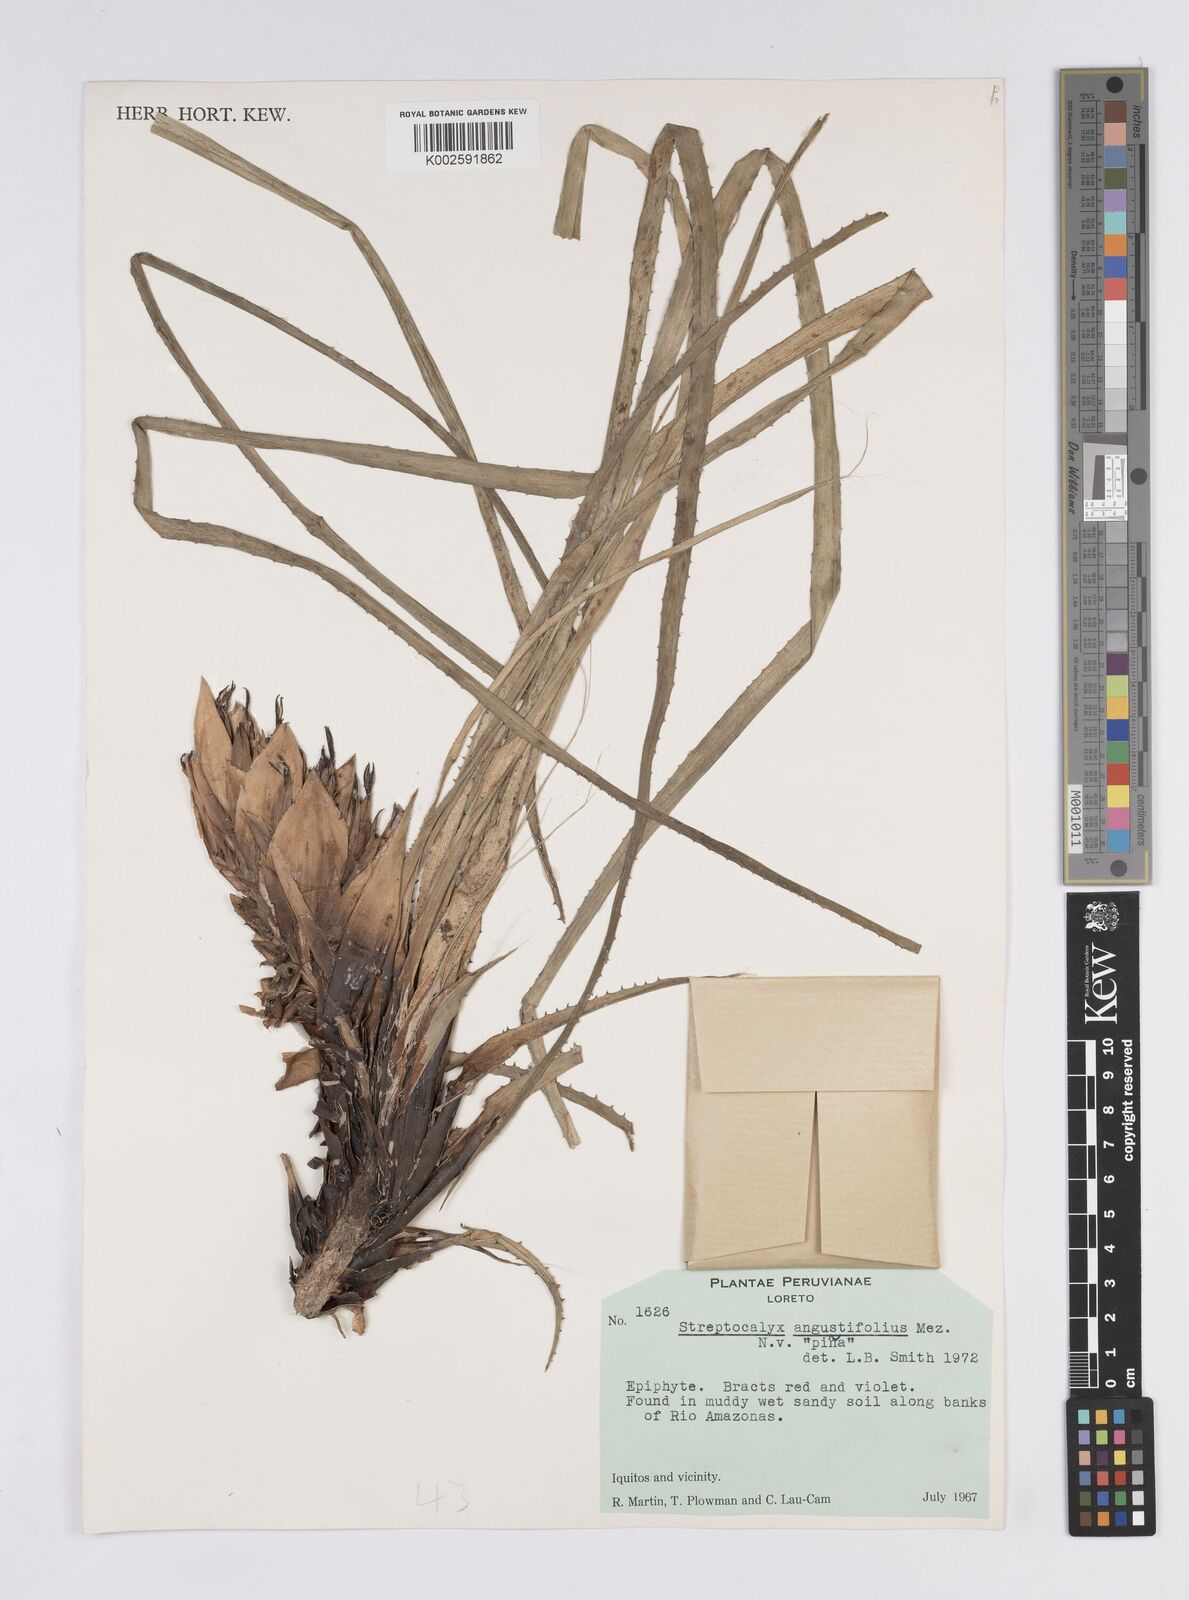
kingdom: Plantae
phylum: Tracheophyta
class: Liliopsida
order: Poales
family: Bromeliaceae
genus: Aechmea
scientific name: Aechmea longifolia
